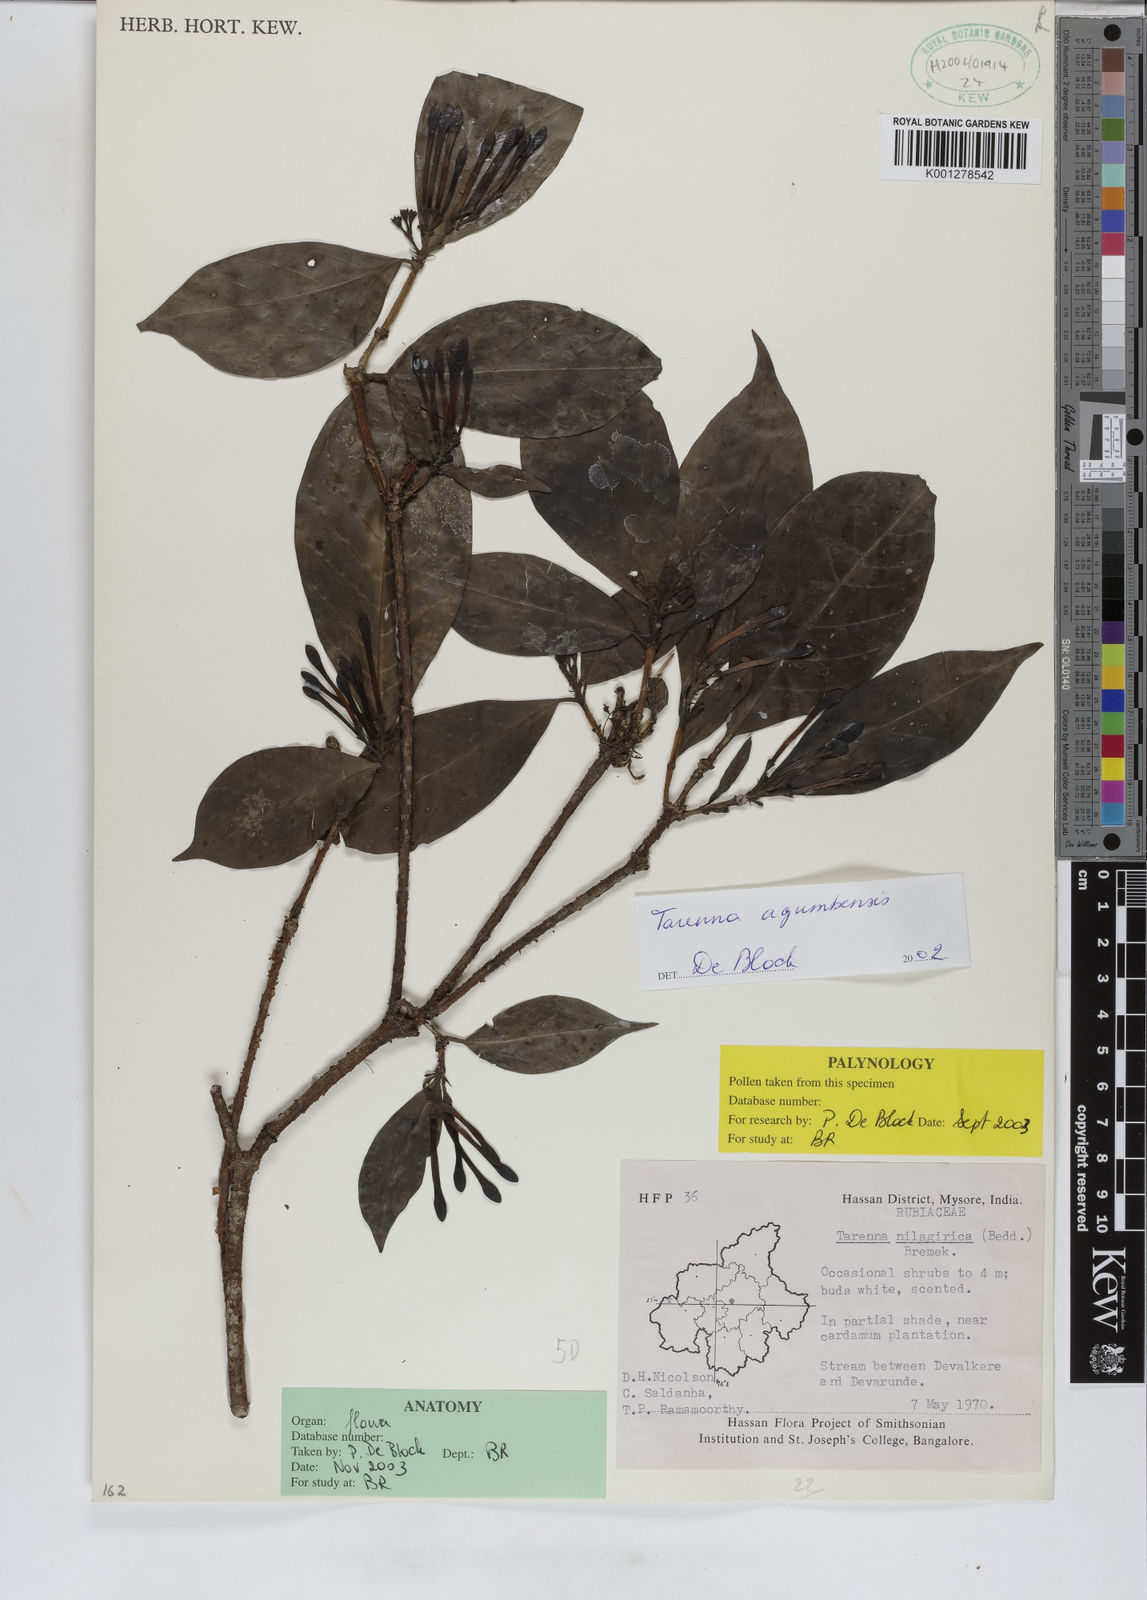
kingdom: Plantae
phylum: Tracheophyta
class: Magnoliopsida
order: Gentianales
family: Rubiaceae
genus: Tarenna
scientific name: Tarenna agumbensis
